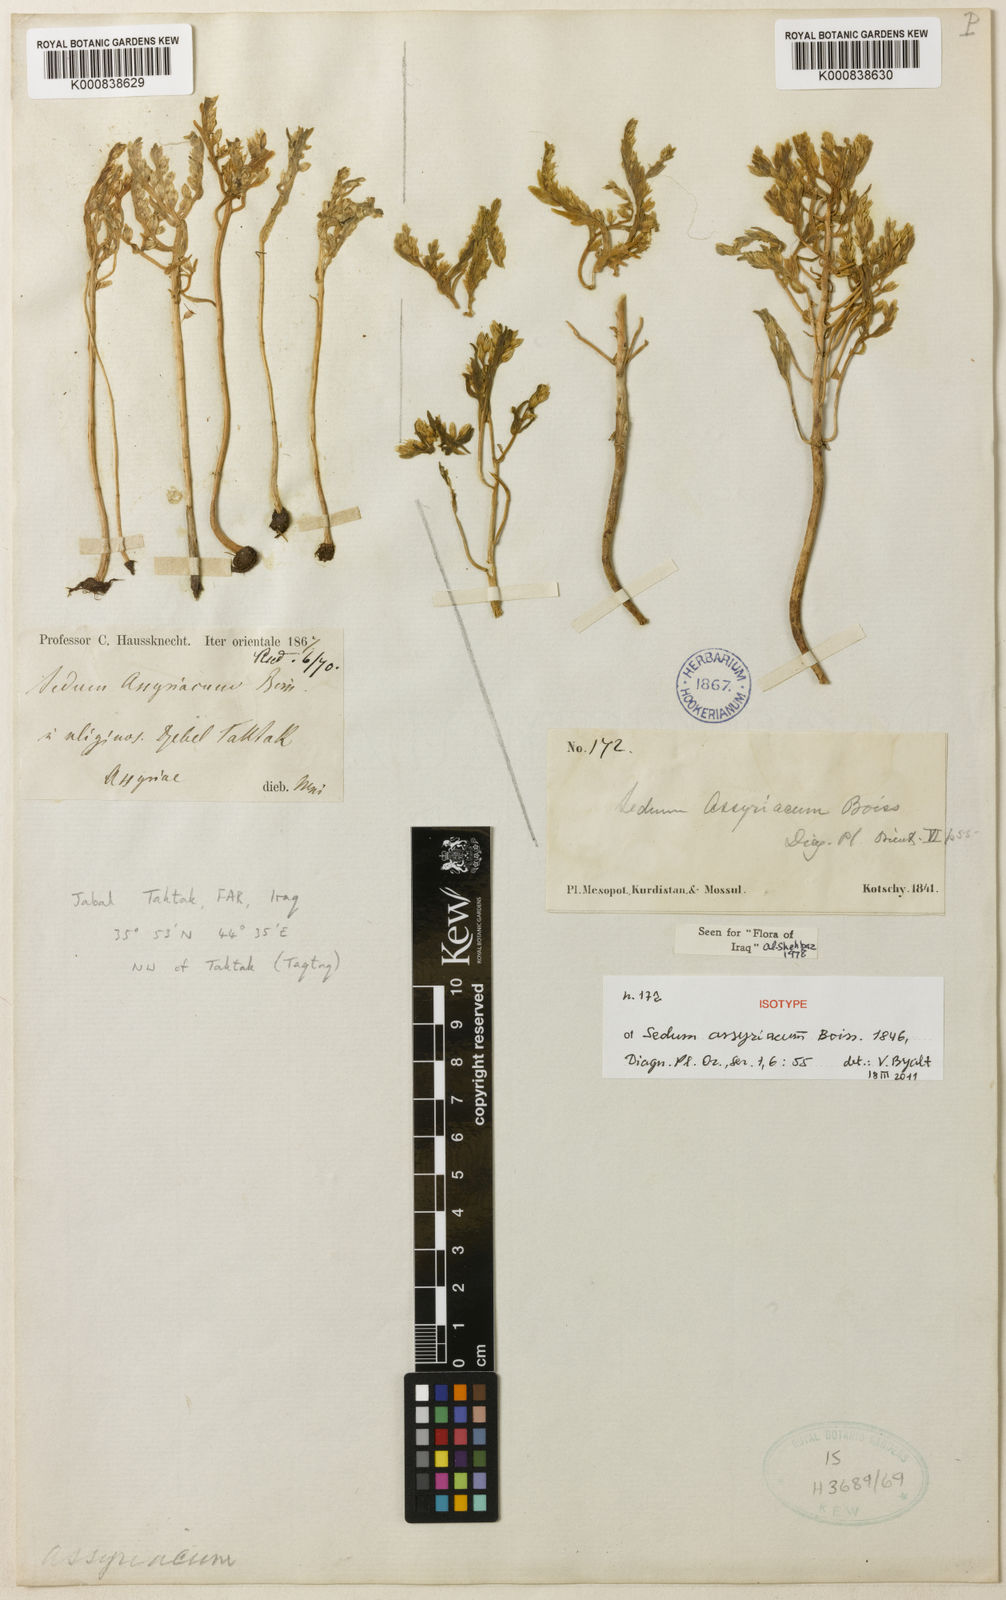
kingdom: Plantae
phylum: Tracheophyta
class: Magnoliopsida
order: Saxifragales
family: Crassulaceae
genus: Sedum
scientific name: Sedum assyriacum
